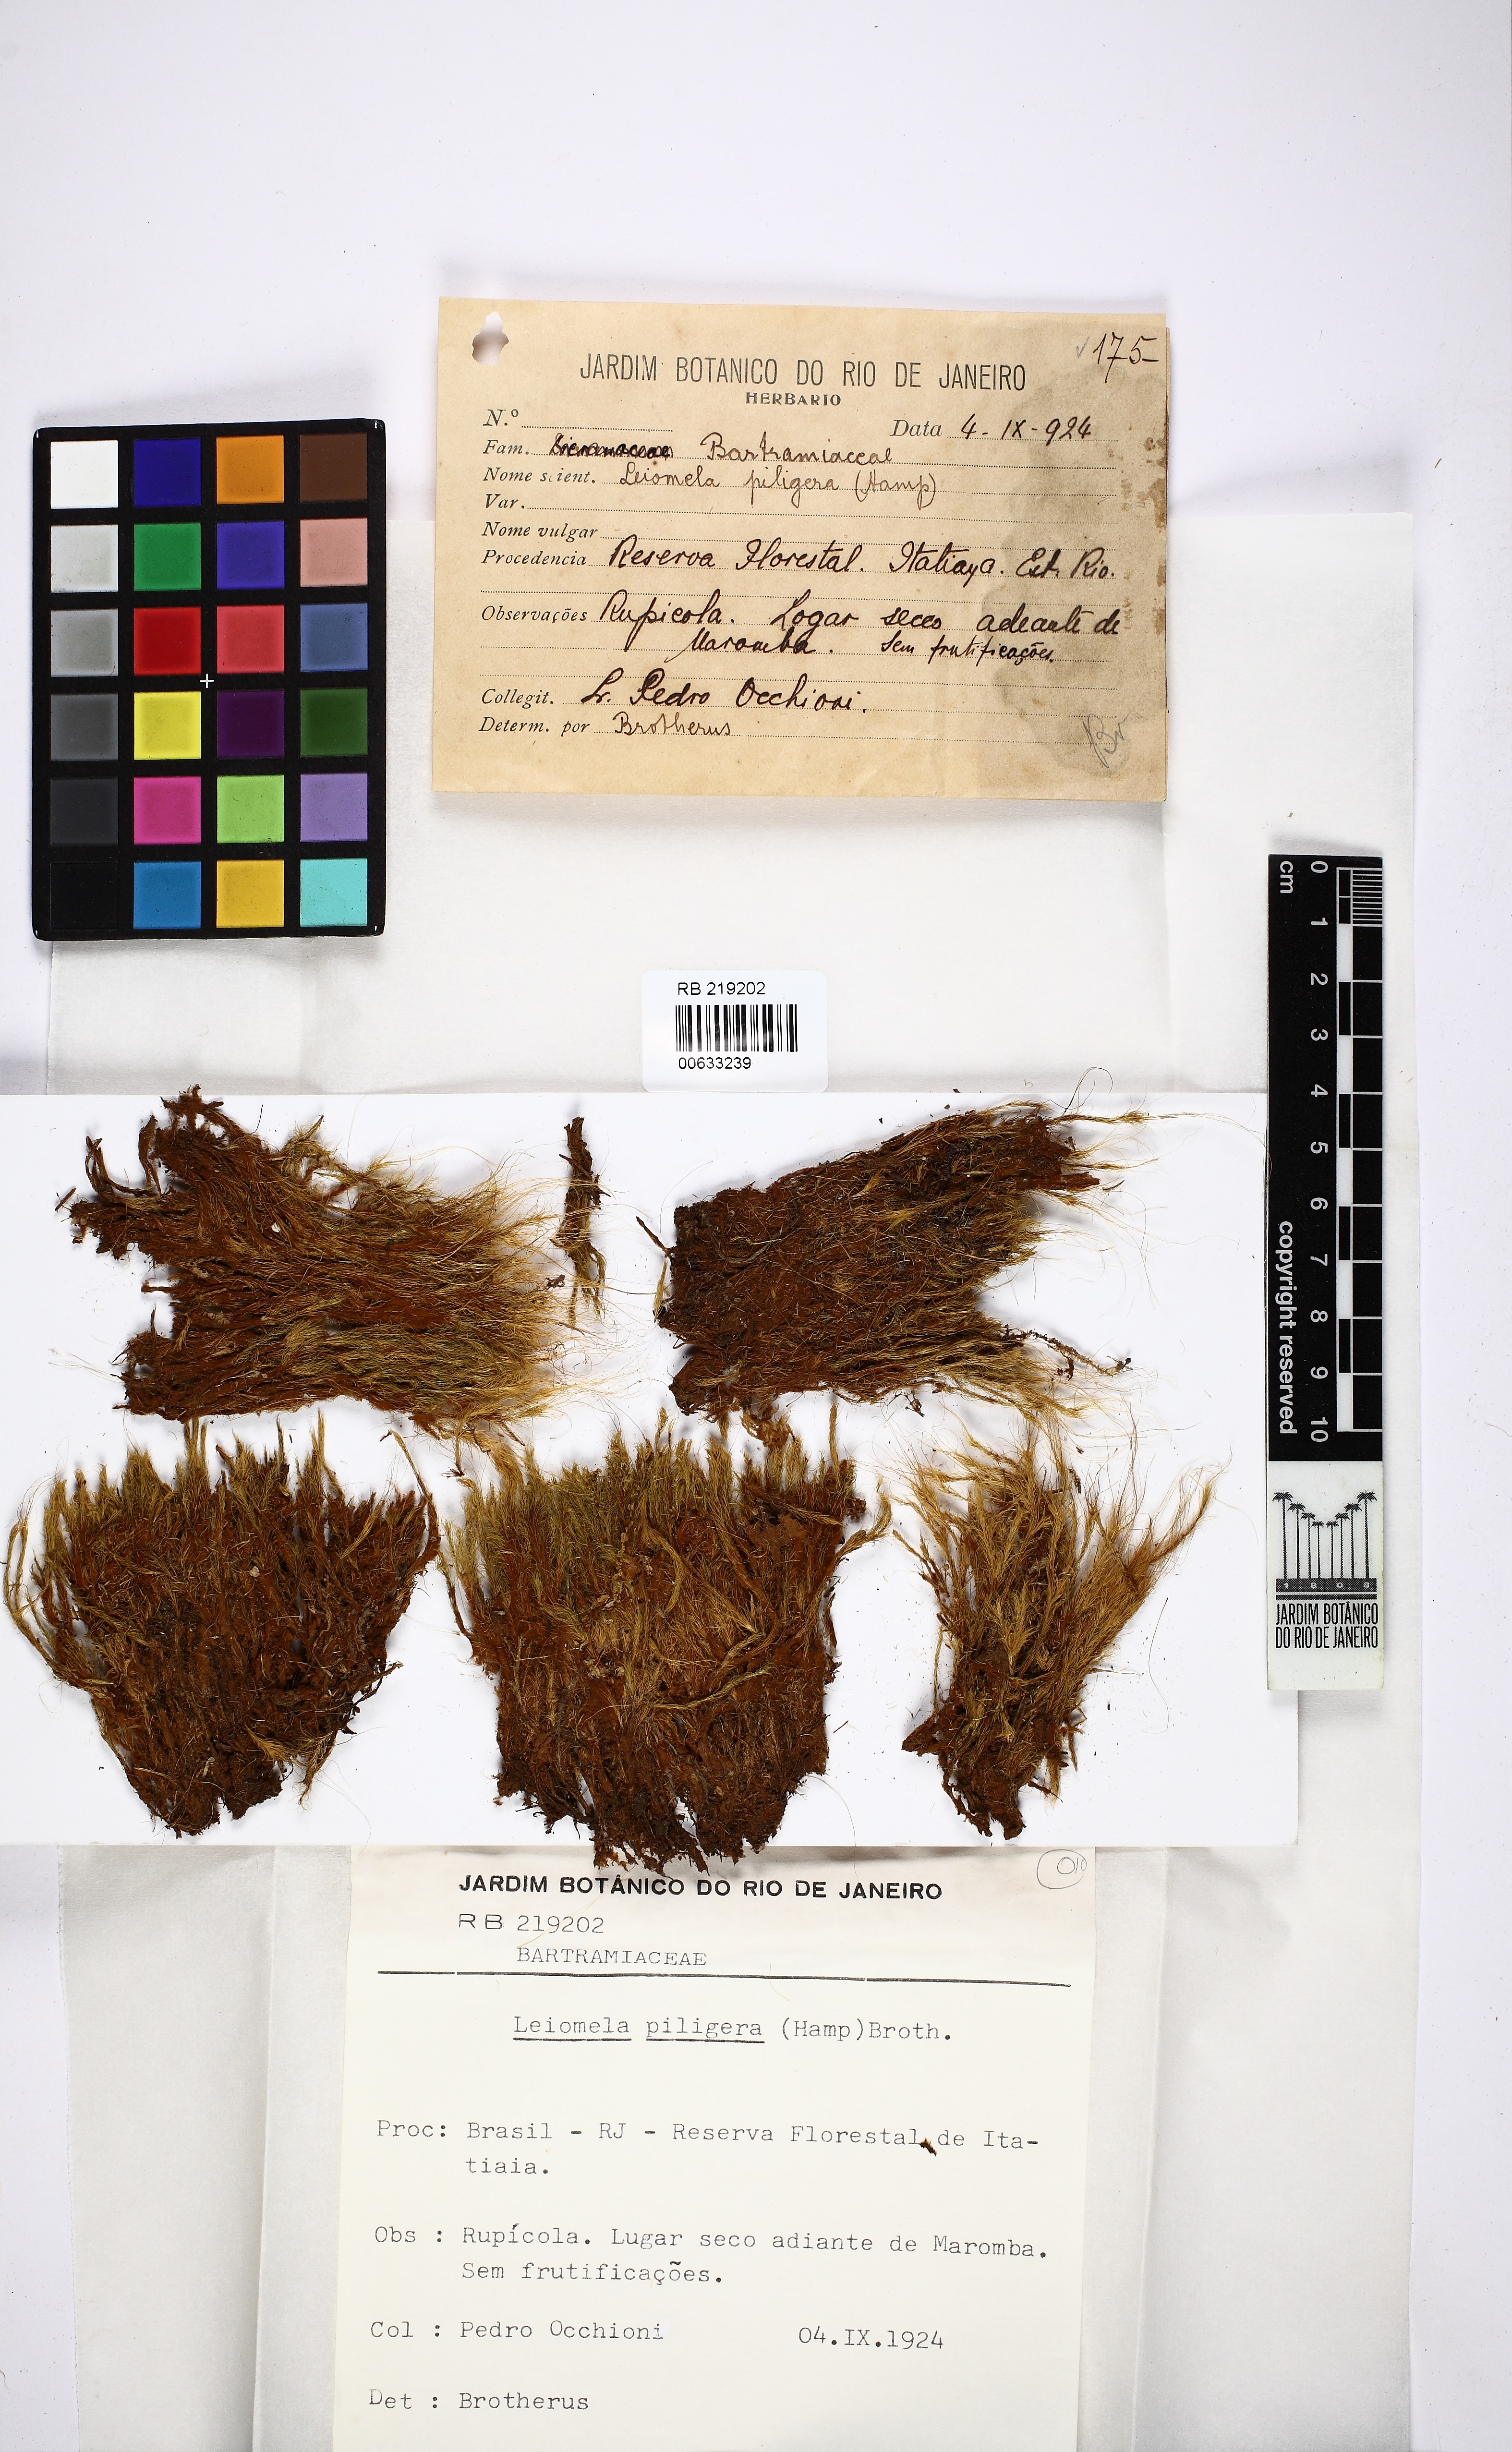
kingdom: Plantae
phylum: Bryophyta
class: Bryopsida
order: Bartramiales
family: Bartramiaceae
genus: Leiomela
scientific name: Leiomela aristifolia
